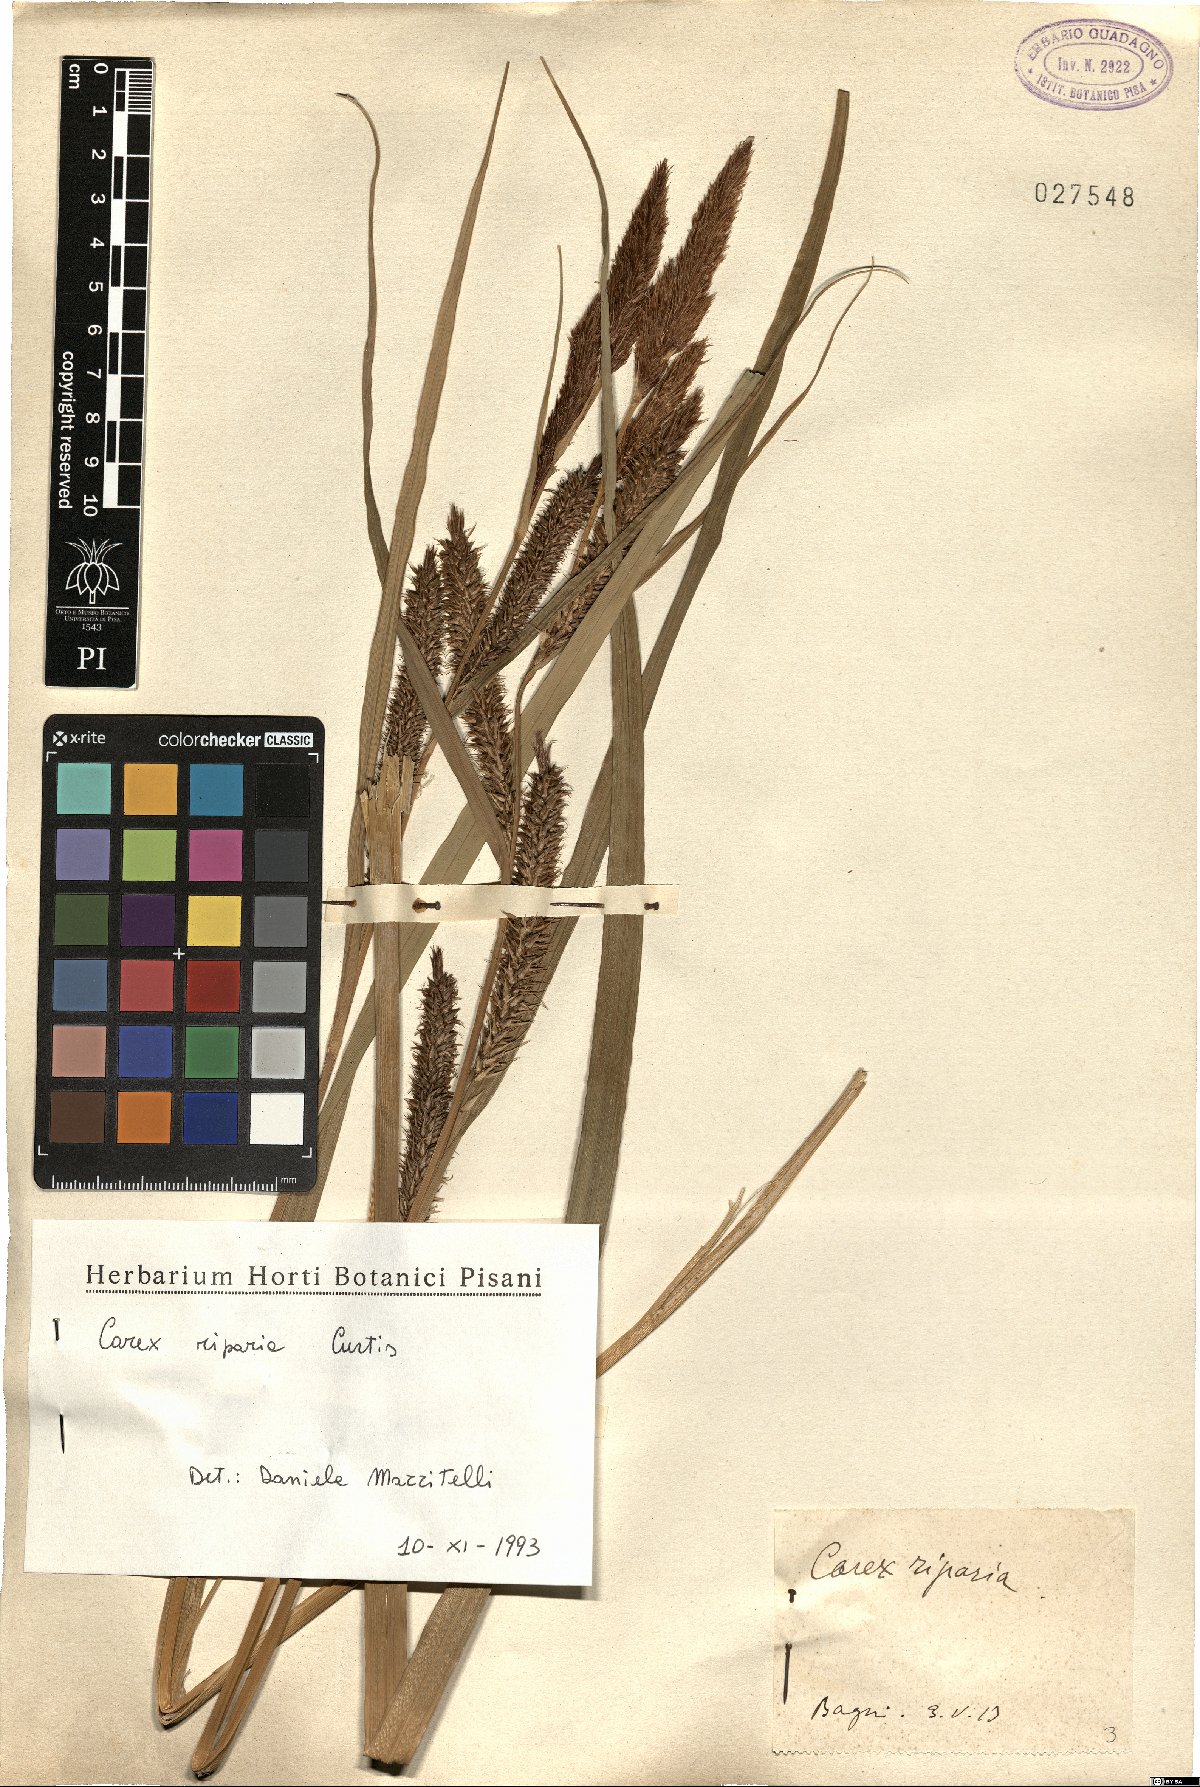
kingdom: Plantae
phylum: Tracheophyta
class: Liliopsida
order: Poales
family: Cyperaceae
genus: Carex
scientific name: Carex riparia
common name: Greater pond-sedge
